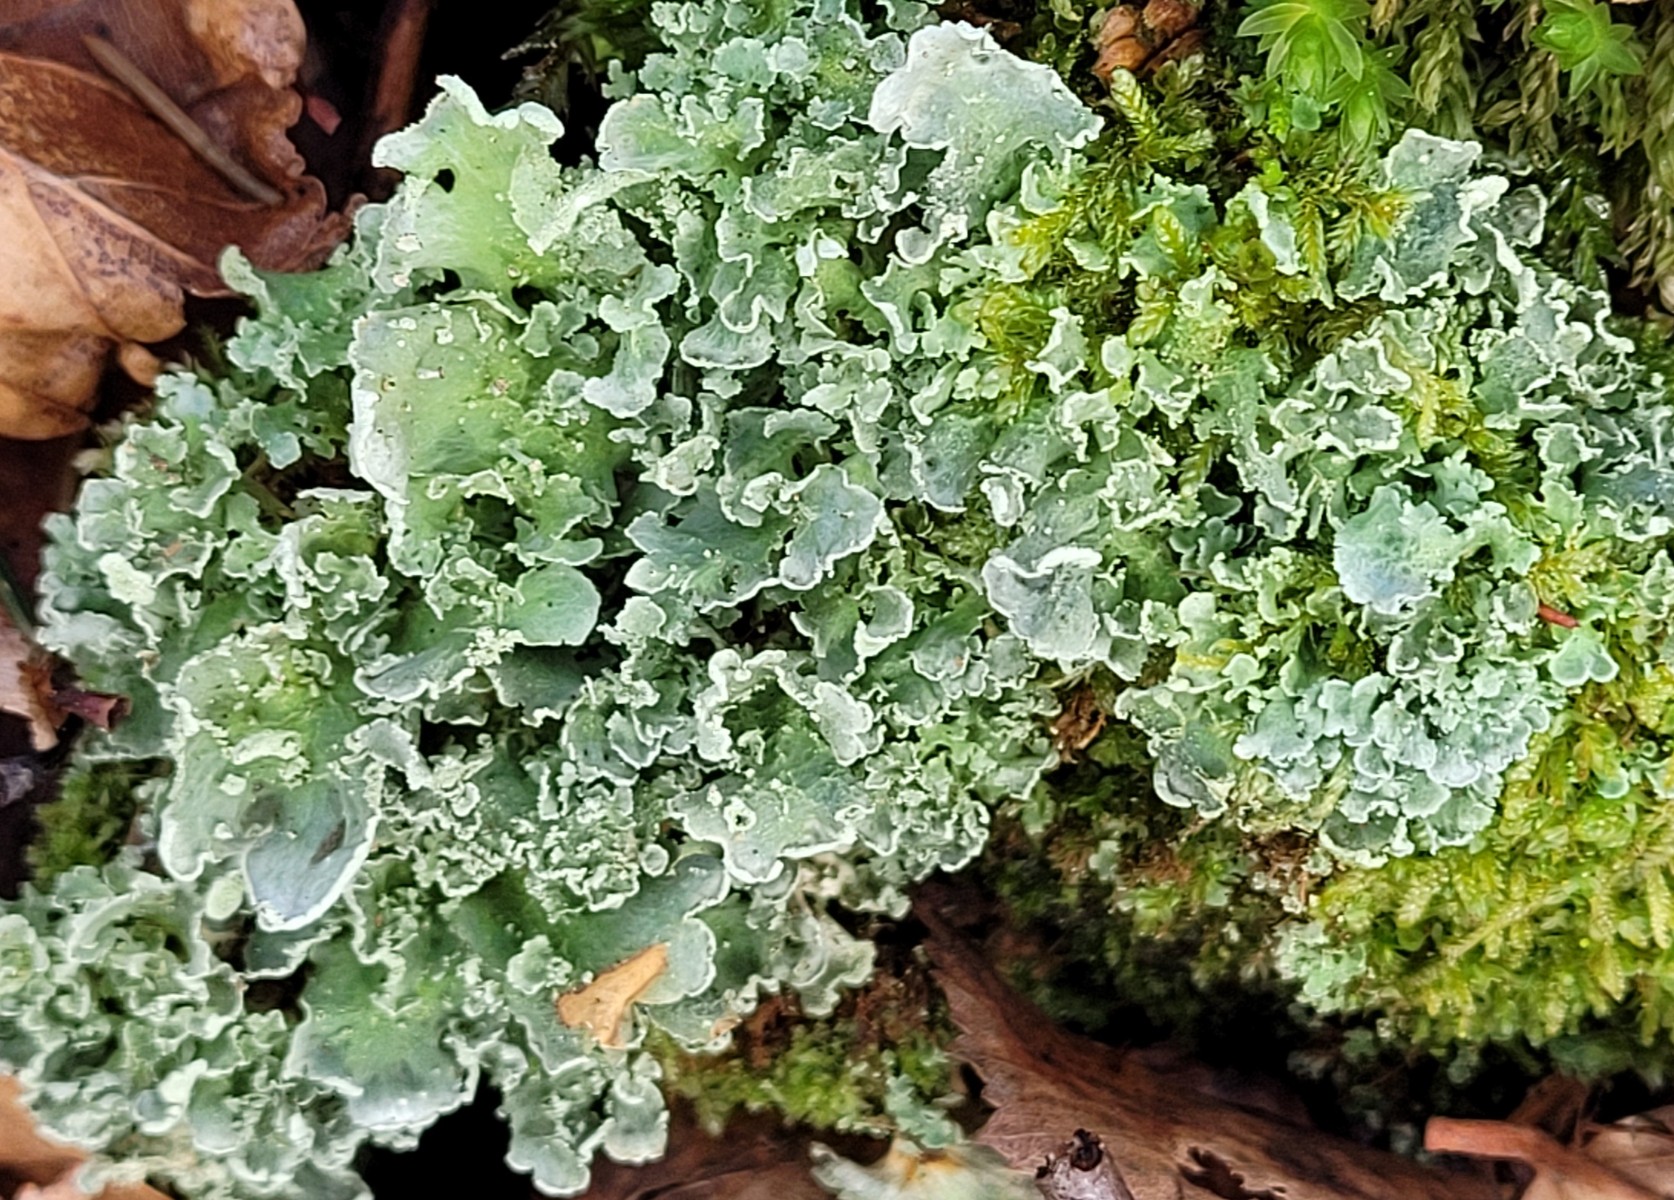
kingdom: Fungi
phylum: Ascomycota
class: Lecanoromycetes
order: Lecanorales
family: Cladoniaceae
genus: Cladonia
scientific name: Cladonia digitata
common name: finger-bægerlav
